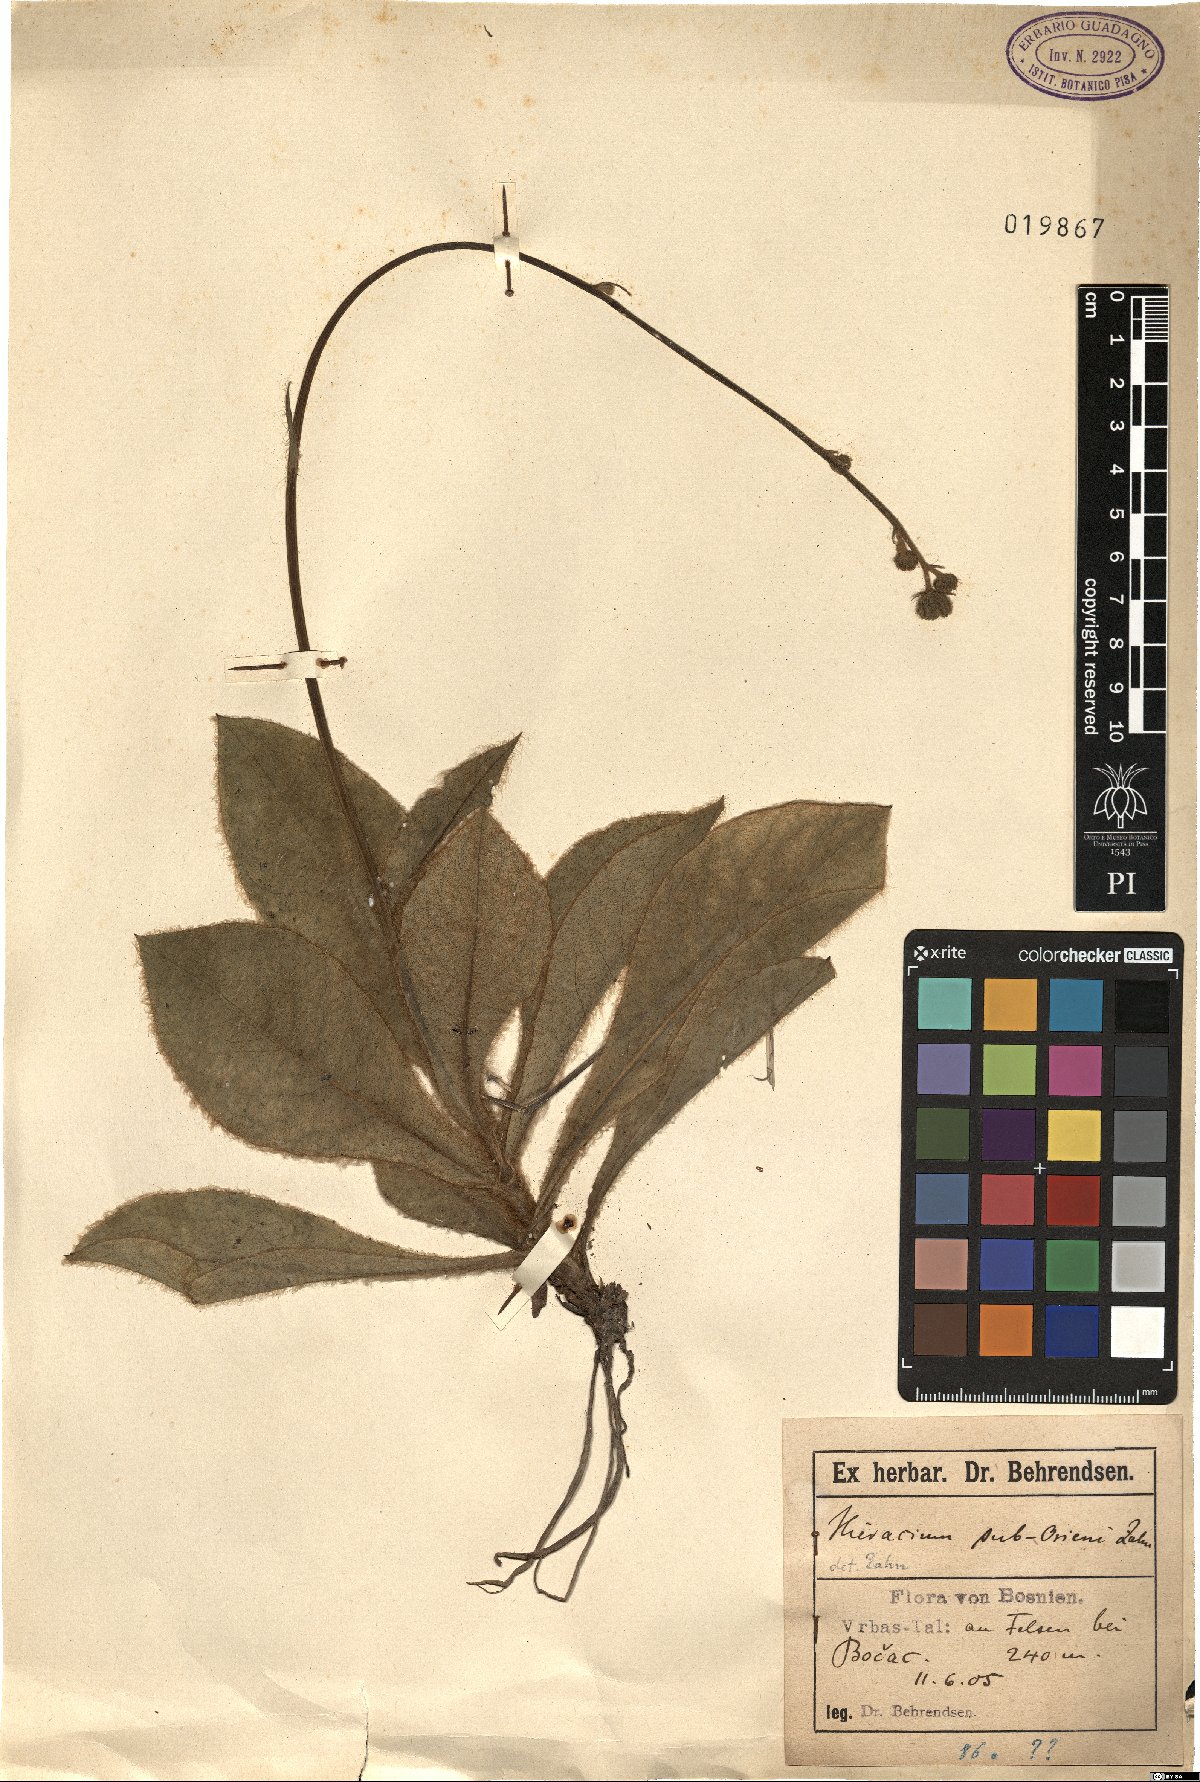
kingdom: Plantae
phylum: Tracheophyta
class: Magnoliopsida
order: Asterales
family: Asteraceae
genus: Hieracium
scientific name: Hieracium waldsteinii
